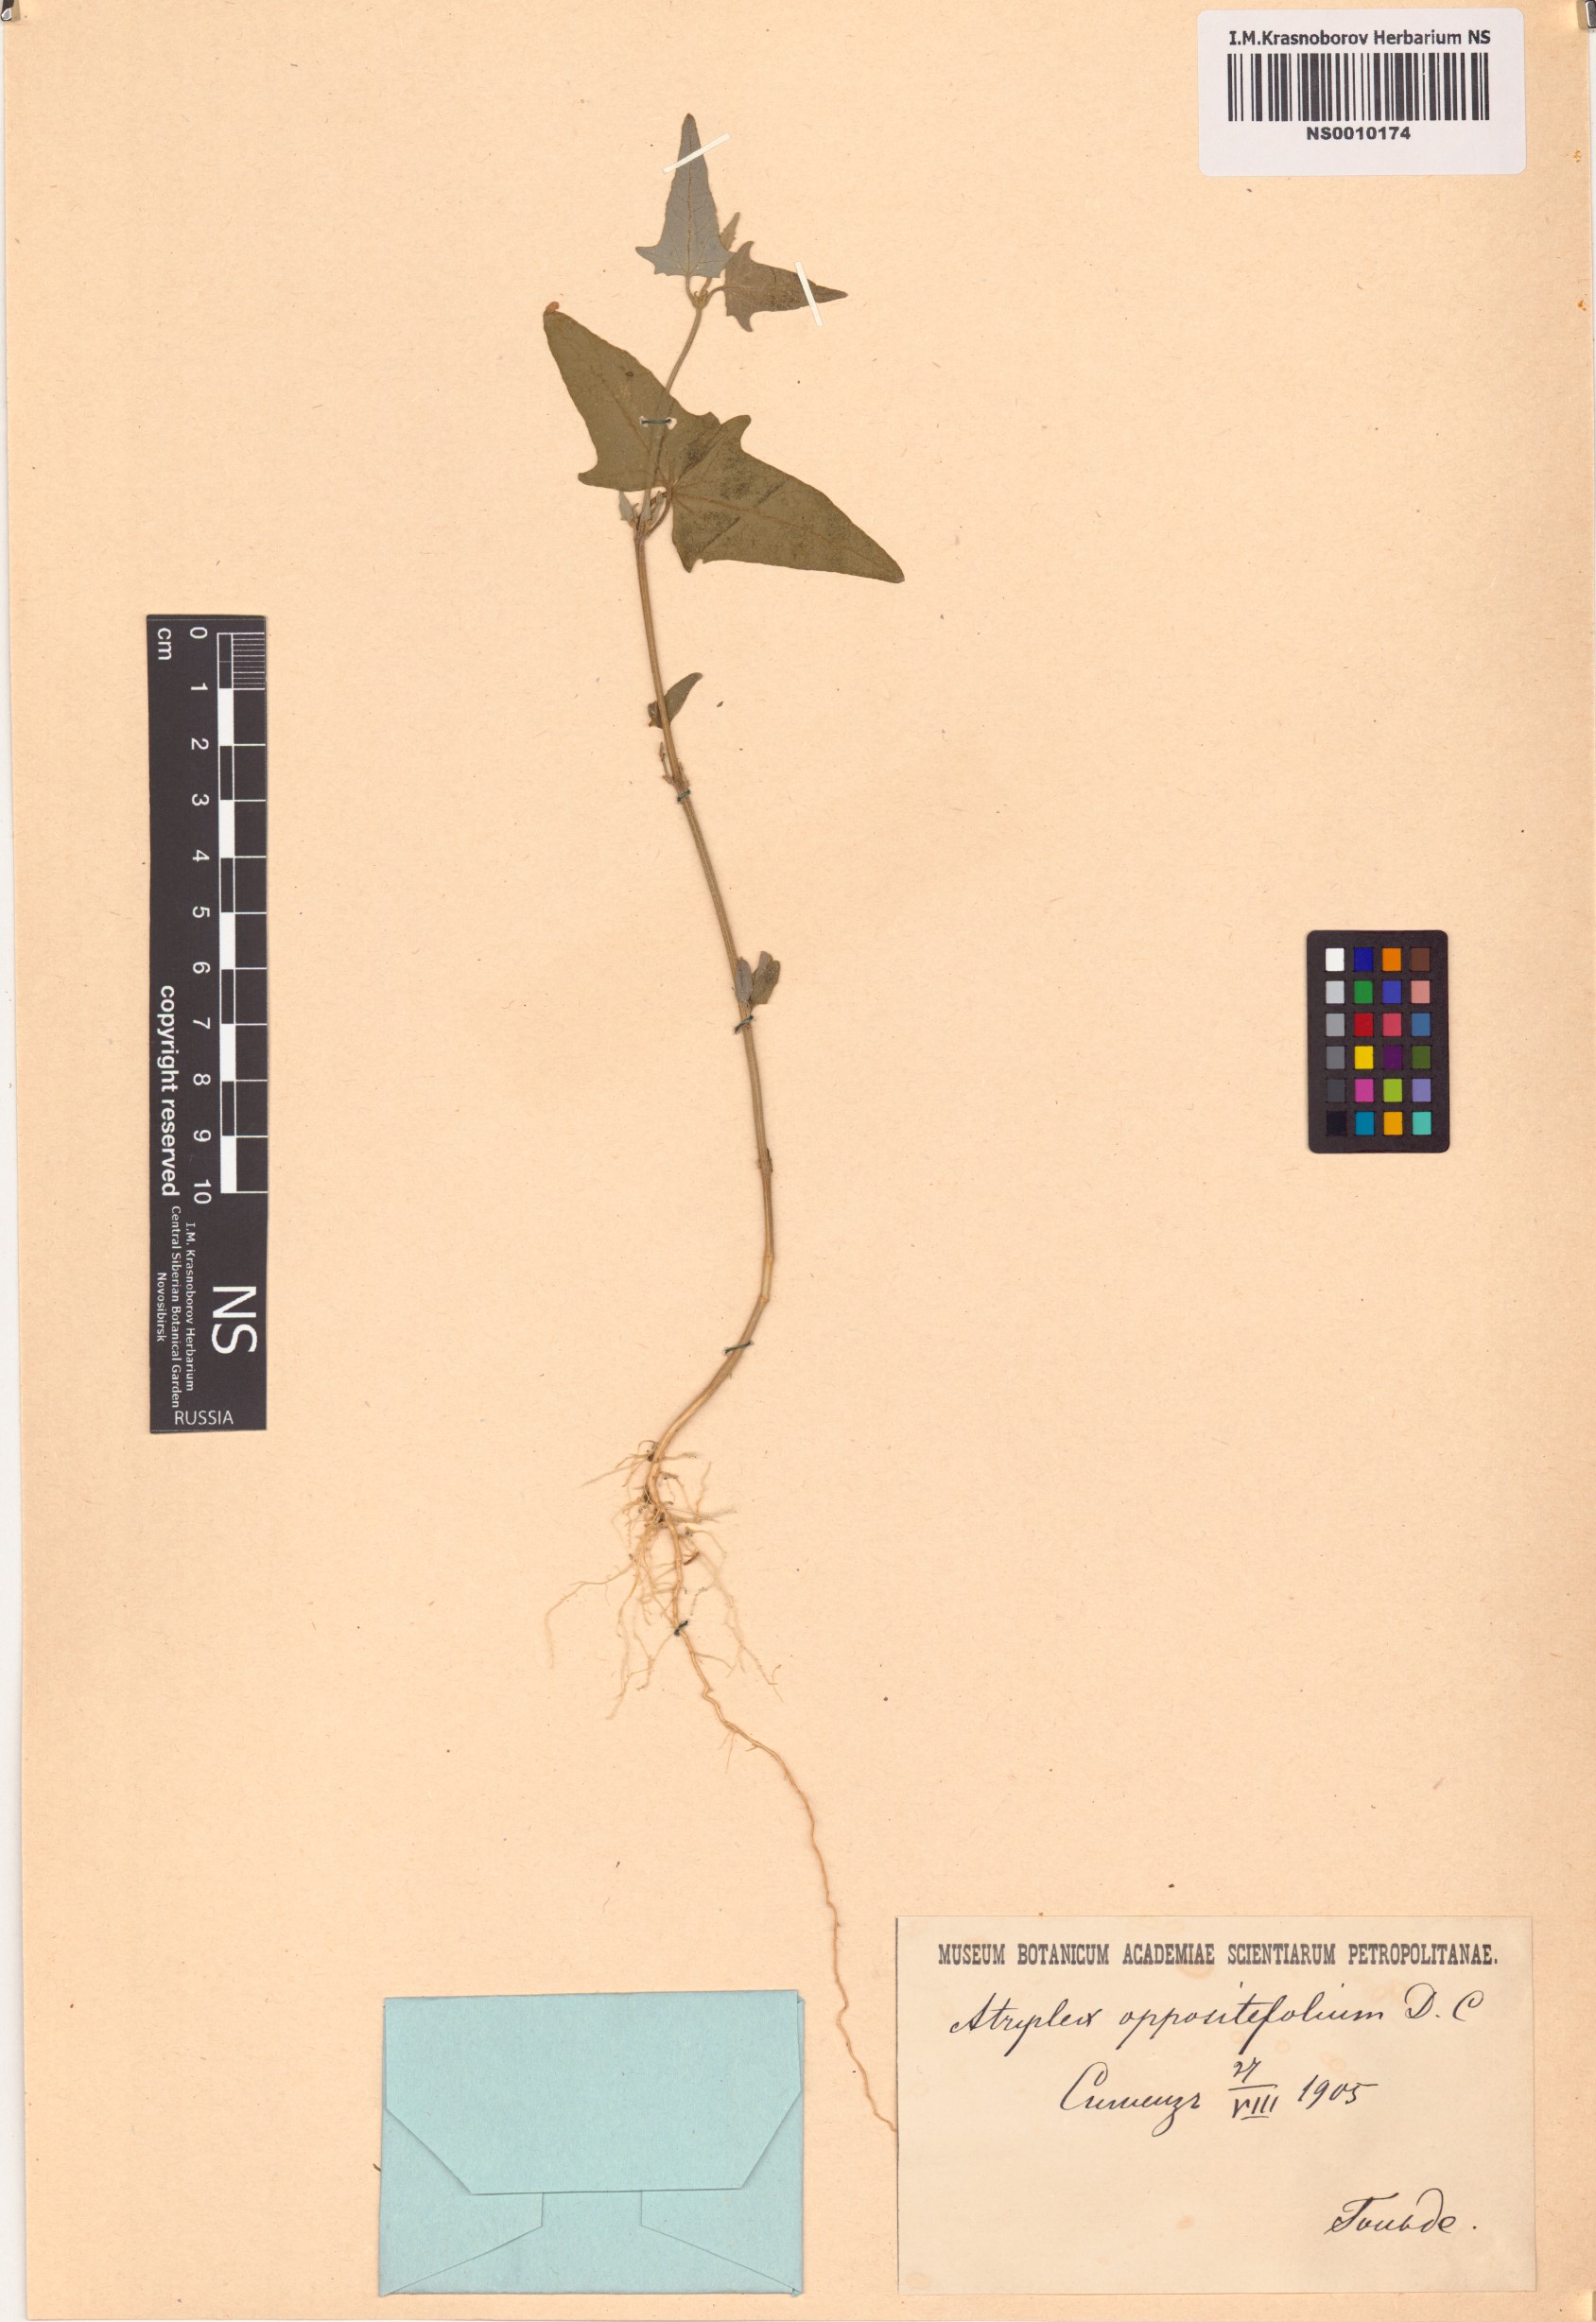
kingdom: Plantae
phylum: Tracheophyta
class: Magnoliopsida
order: Caryophyllales
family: Amaranthaceae
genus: Atriplex
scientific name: Atriplex prostrata
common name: Spear-leaved orache
